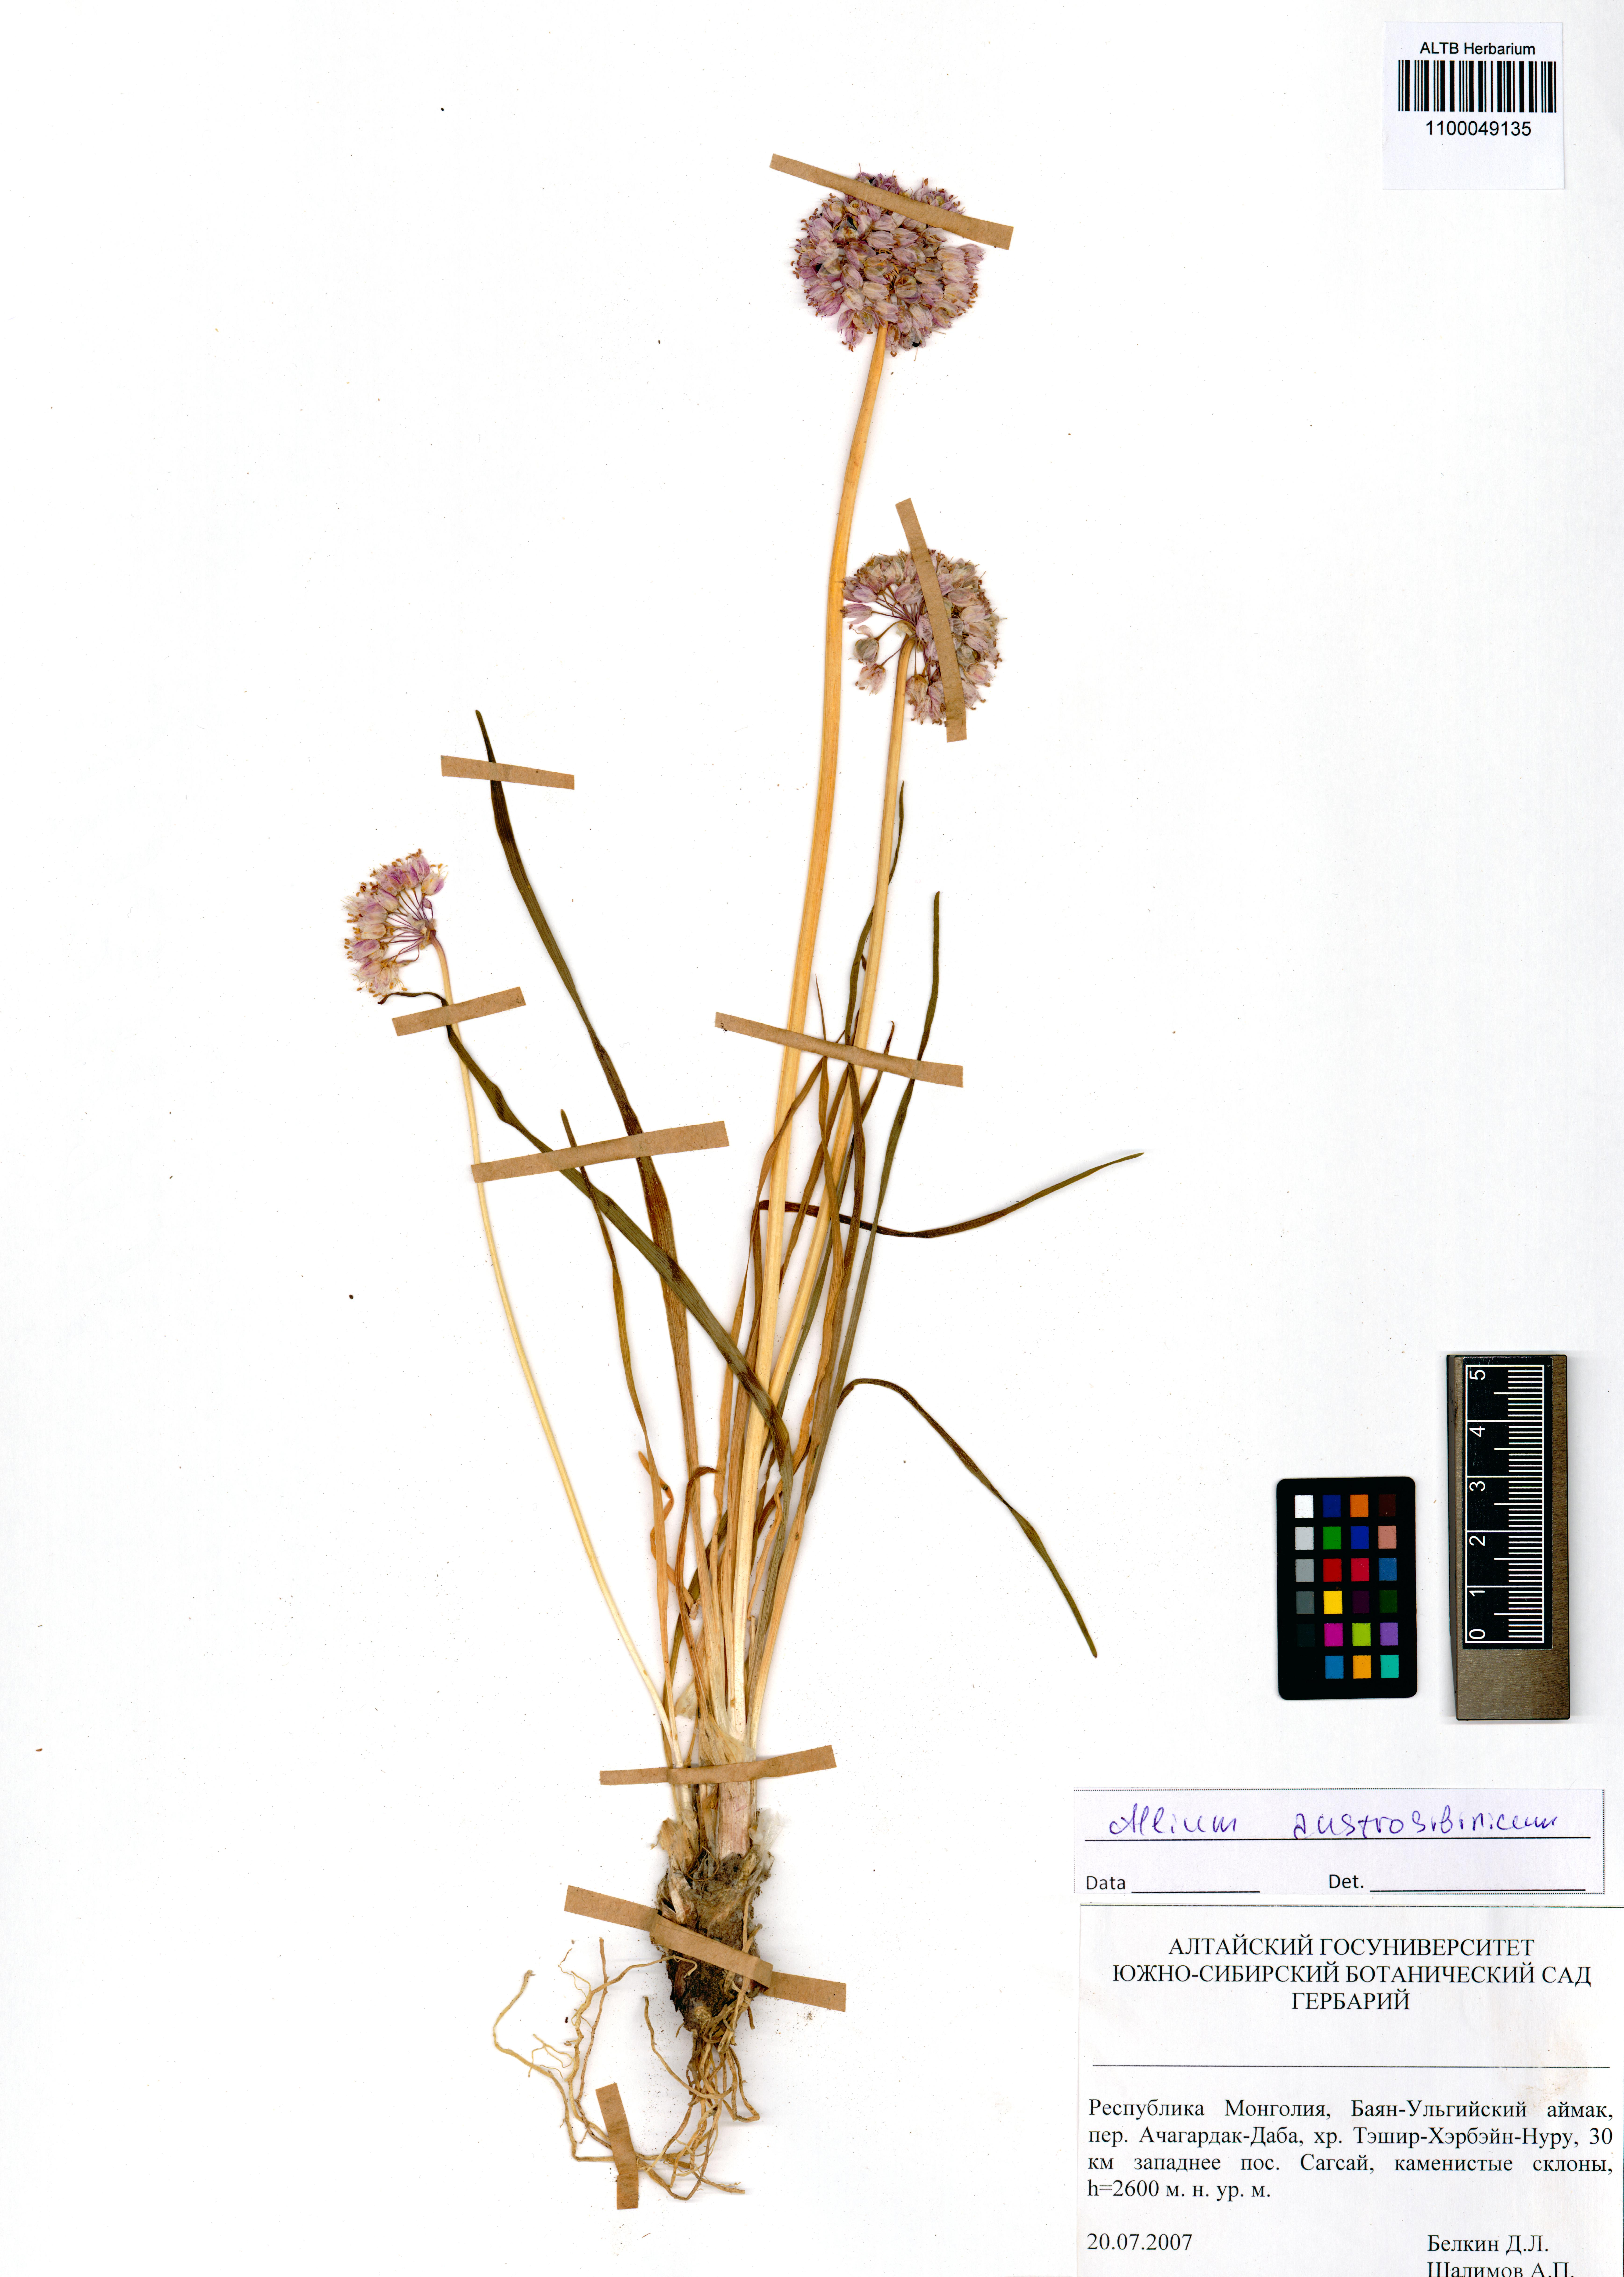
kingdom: Plantae
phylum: Tracheophyta
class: Liliopsida
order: Asparagales
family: Amaryllidaceae
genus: Allium
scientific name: Allium austrosibiricum
